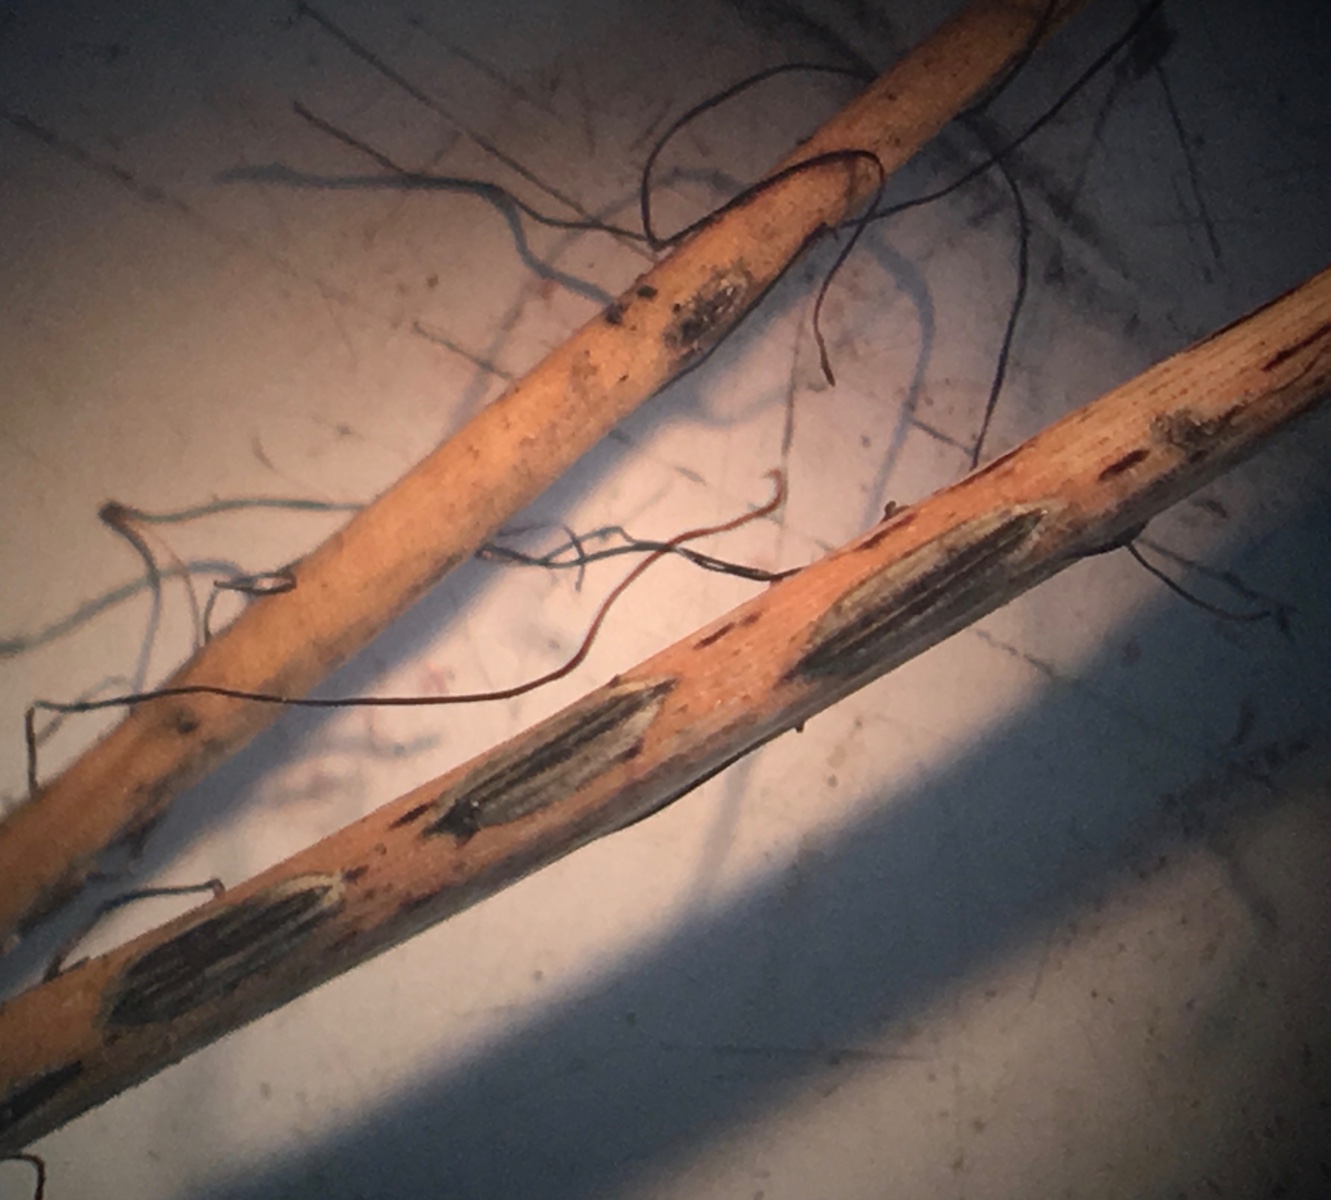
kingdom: Fungi
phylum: Ascomycota
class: Leotiomycetes
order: Rhytismatales
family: Rhytismataceae
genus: Lophodermium
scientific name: Lophodermium seditiosum
